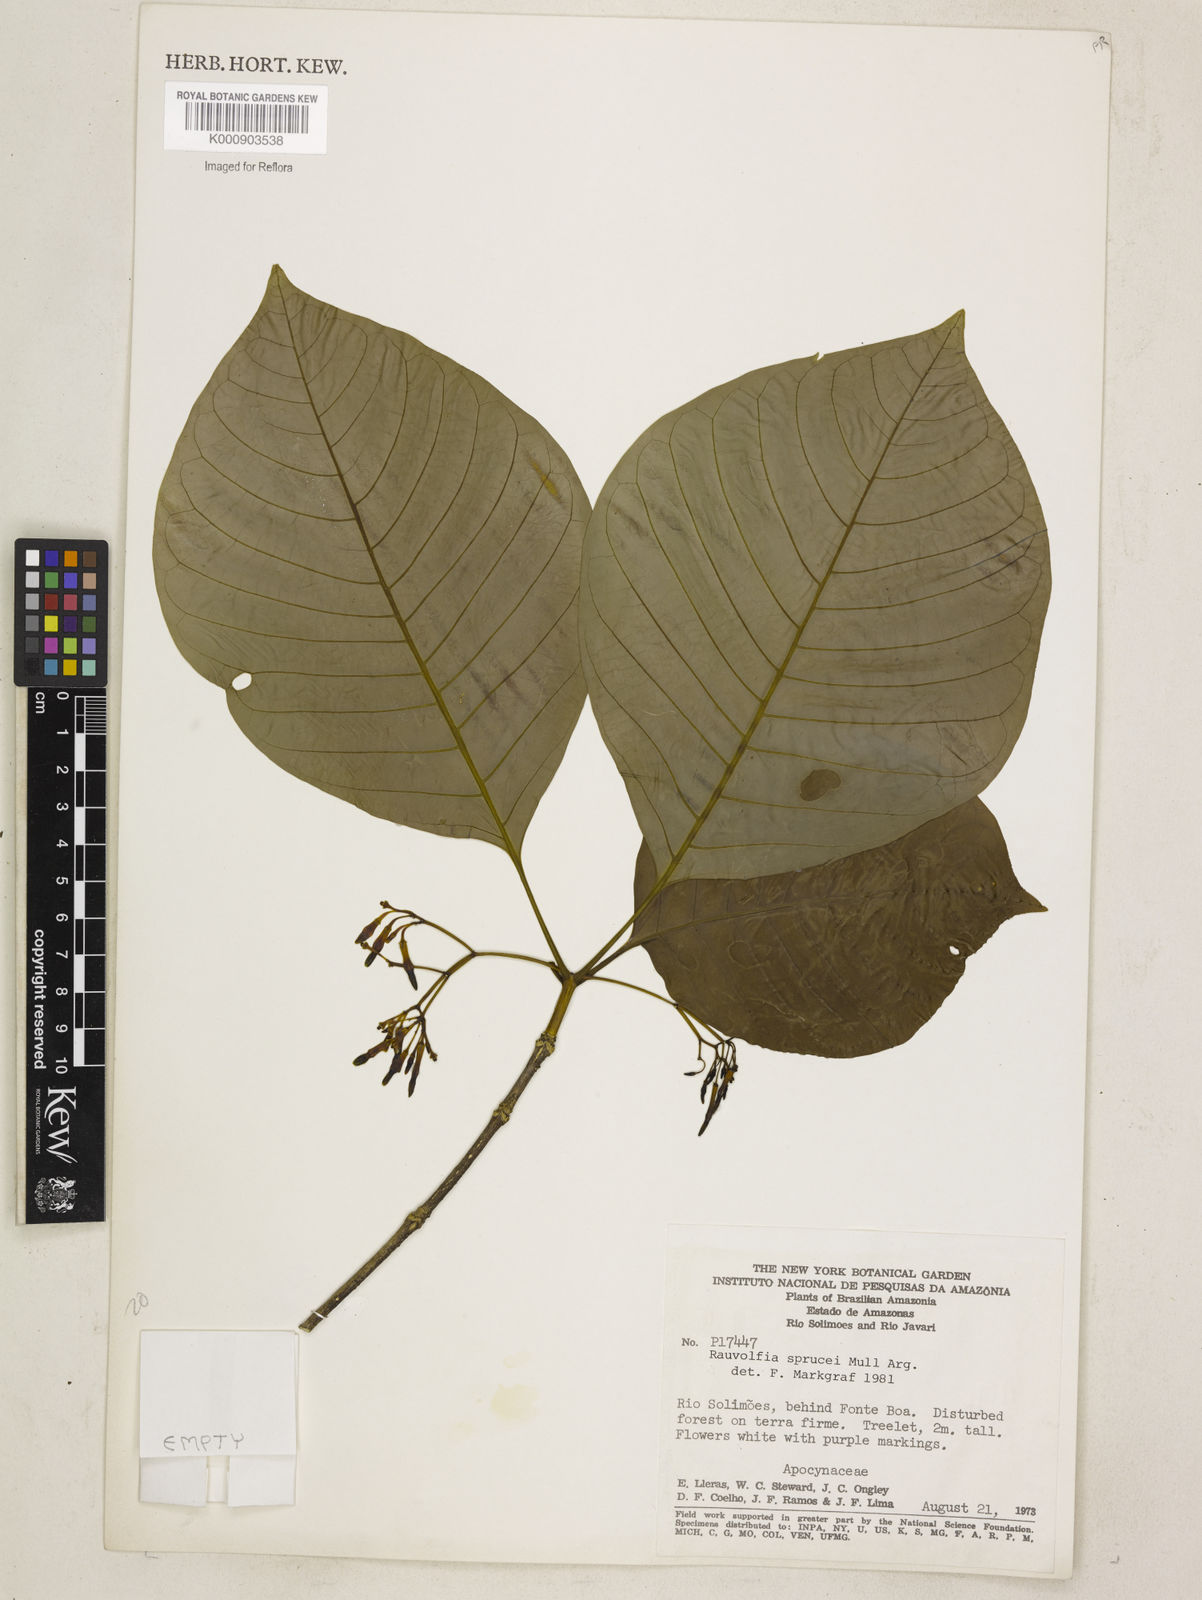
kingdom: Plantae
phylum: Tracheophyta
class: Magnoliopsida
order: Gentianales
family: Apocynaceae
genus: Rauvolfia
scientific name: Rauvolfia
